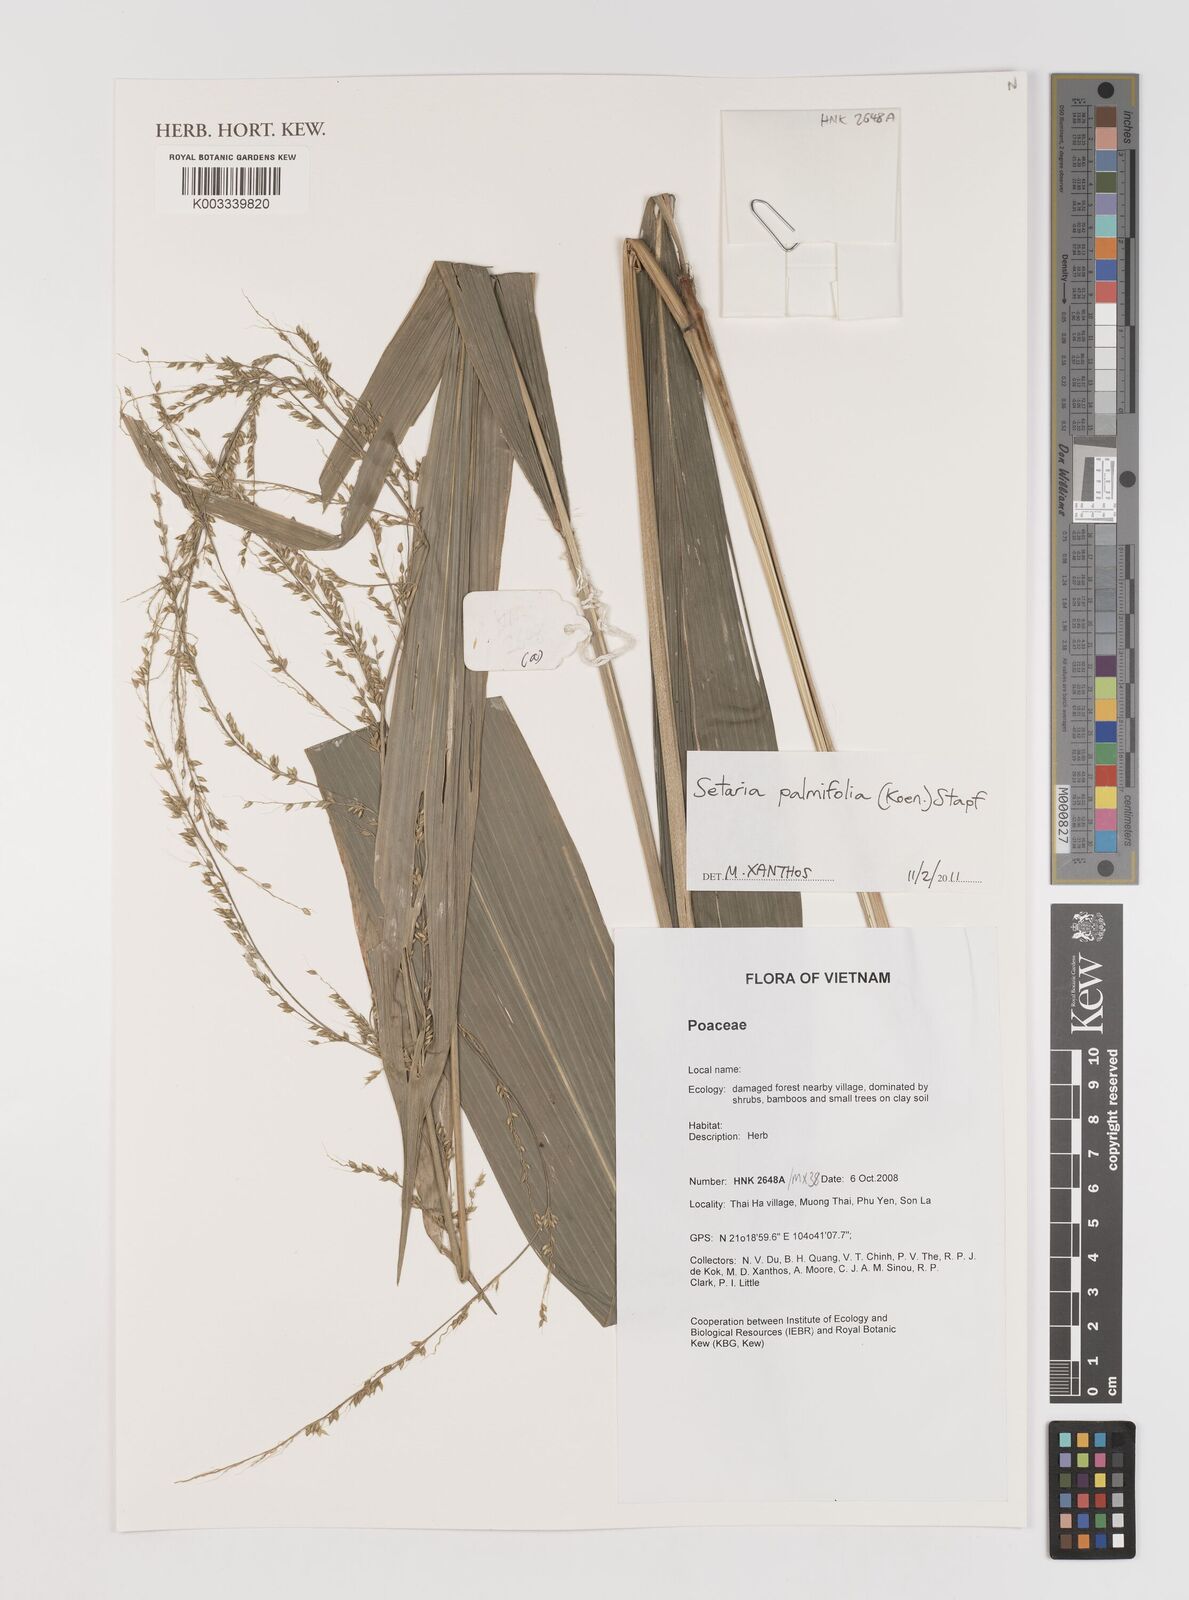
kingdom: Plantae
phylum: Tracheophyta
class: Liliopsida
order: Poales
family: Poaceae
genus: Setaria
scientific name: Setaria palmifolia
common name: Broadleaved bristlegrass
